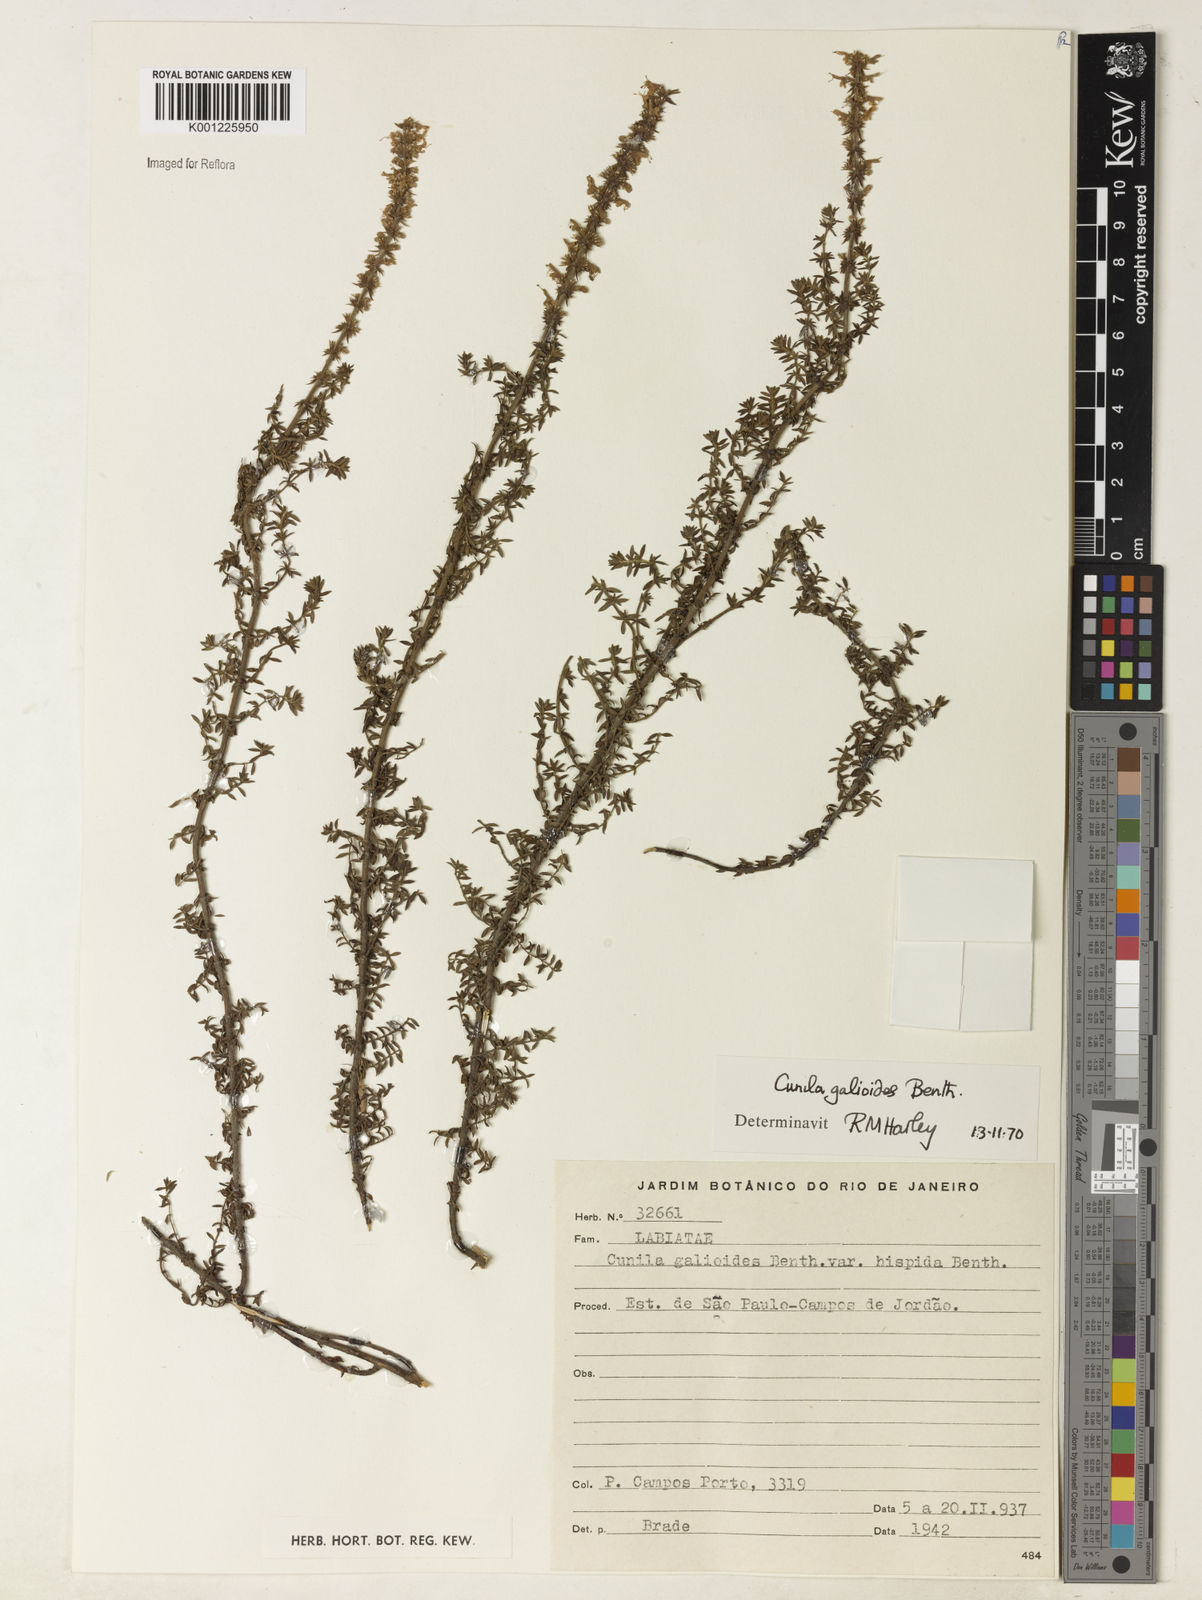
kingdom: Plantae
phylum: Tracheophyta
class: Magnoliopsida
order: Lamiales
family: Lamiaceae
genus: Cunila
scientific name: Cunila galioides
